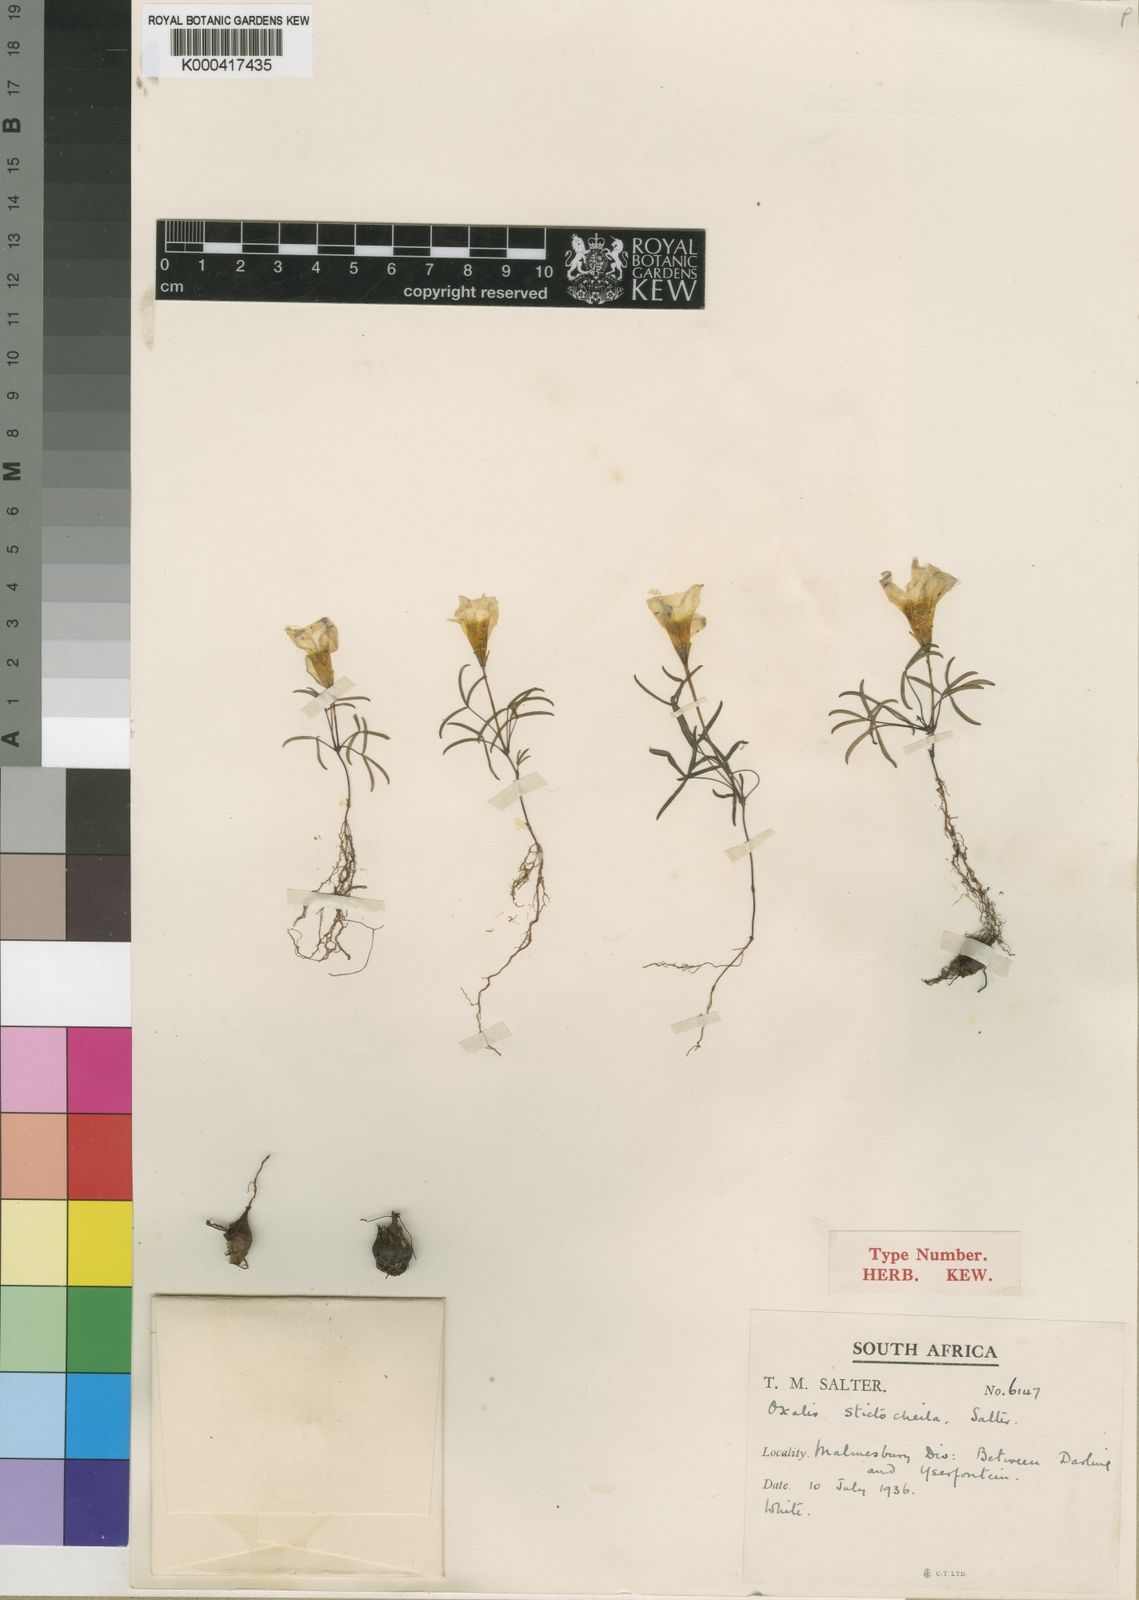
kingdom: Plantae
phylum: Tracheophyta
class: Magnoliopsida
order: Oxalidales
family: Oxalidaceae
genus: Oxalis
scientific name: Oxalis stictocheila
